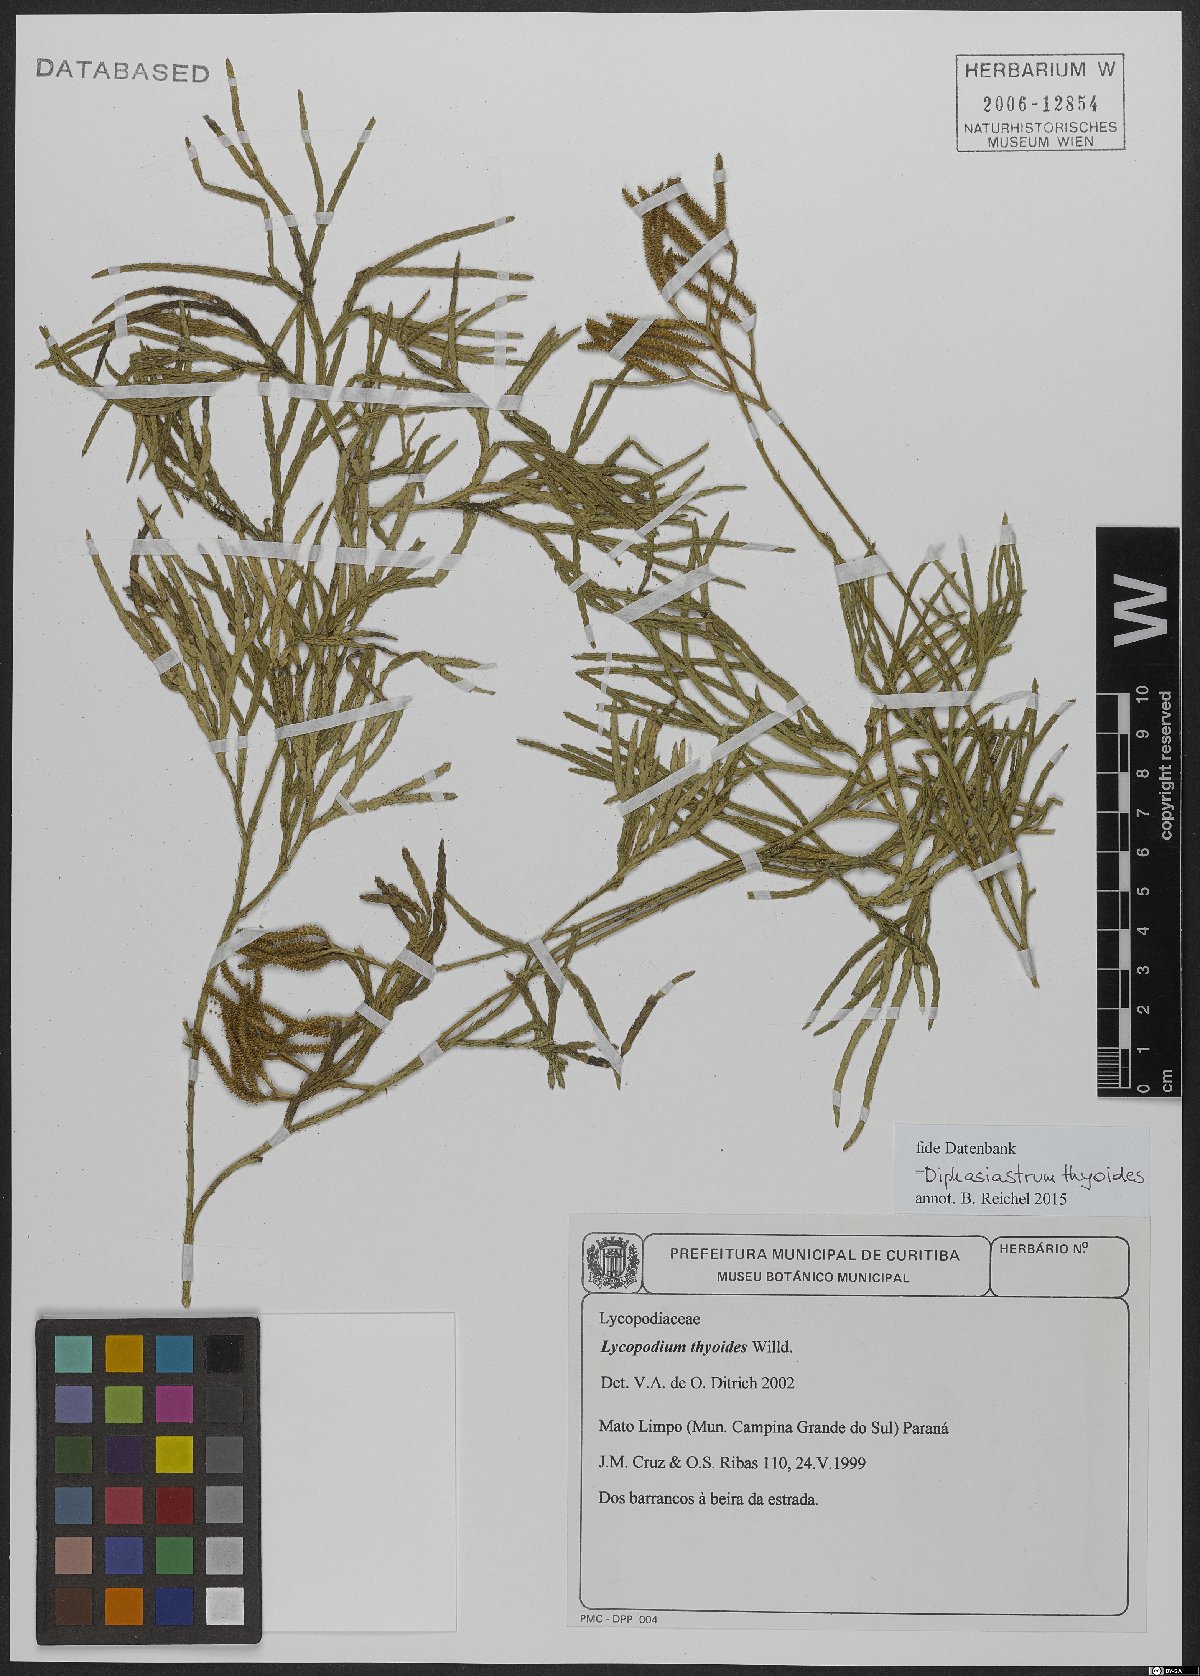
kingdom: Plantae
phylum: Tracheophyta
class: Lycopodiopsida
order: Lycopodiales
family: Lycopodiaceae
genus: Diphasiastrum
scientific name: Diphasiastrum thyoides
